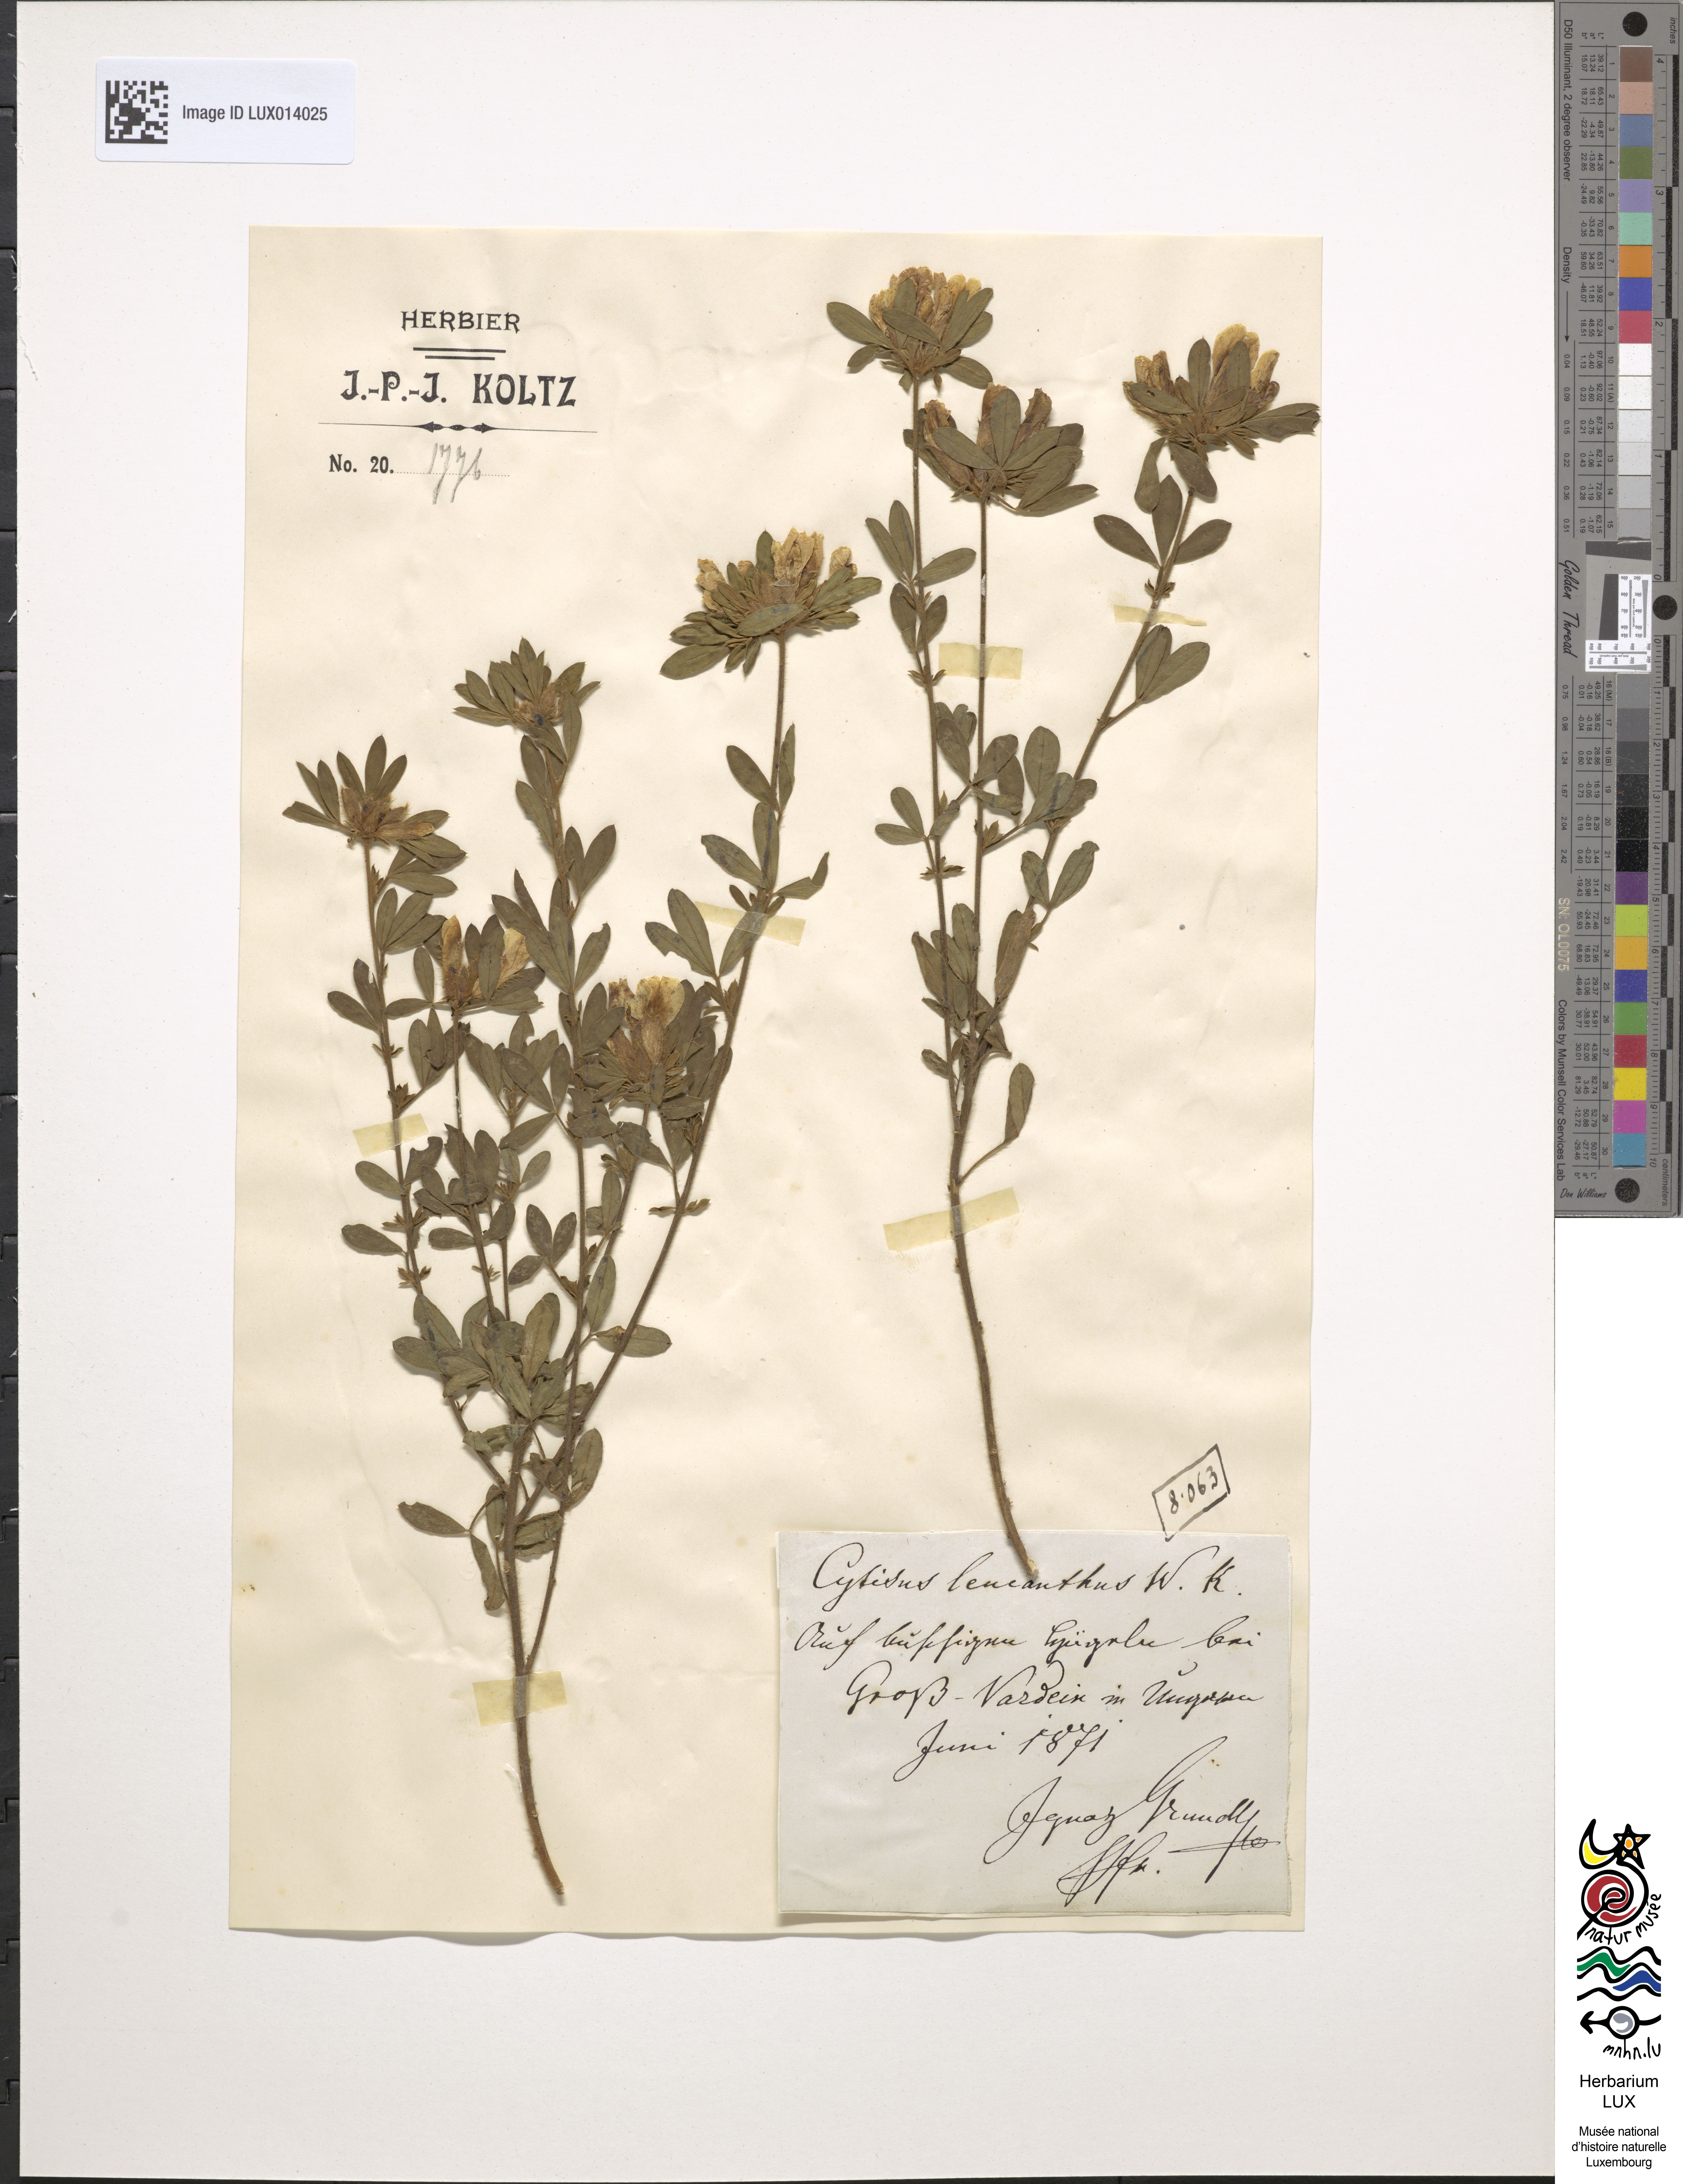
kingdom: Plantae
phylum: Tracheophyta
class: Magnoliopsida
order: Fabales
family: Fabaceae
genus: Chamaecytisus
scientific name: Chamaecytisus albus
